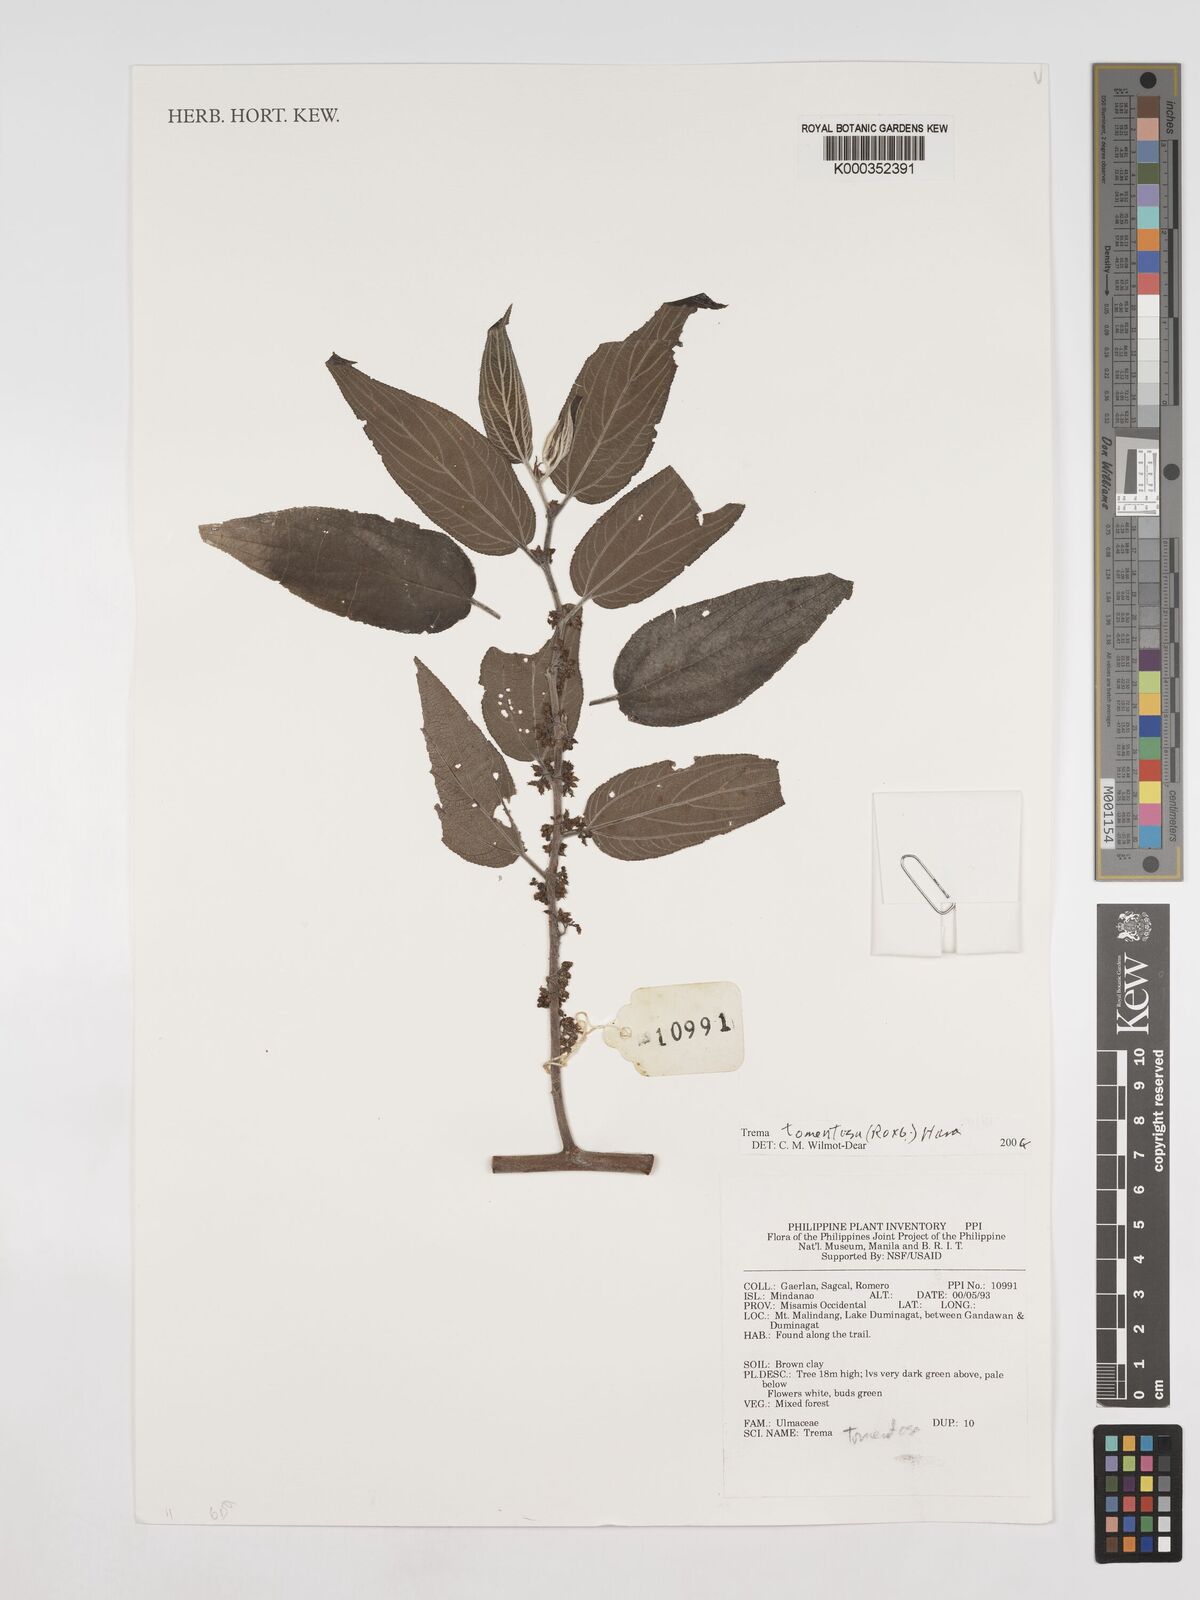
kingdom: Plantae
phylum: Tracheophyta
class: Magnoliopsida
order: Rosales
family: Cannabaceae
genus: Trema
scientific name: Trema tomentosum
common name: Peach-leaf-poisonbush
